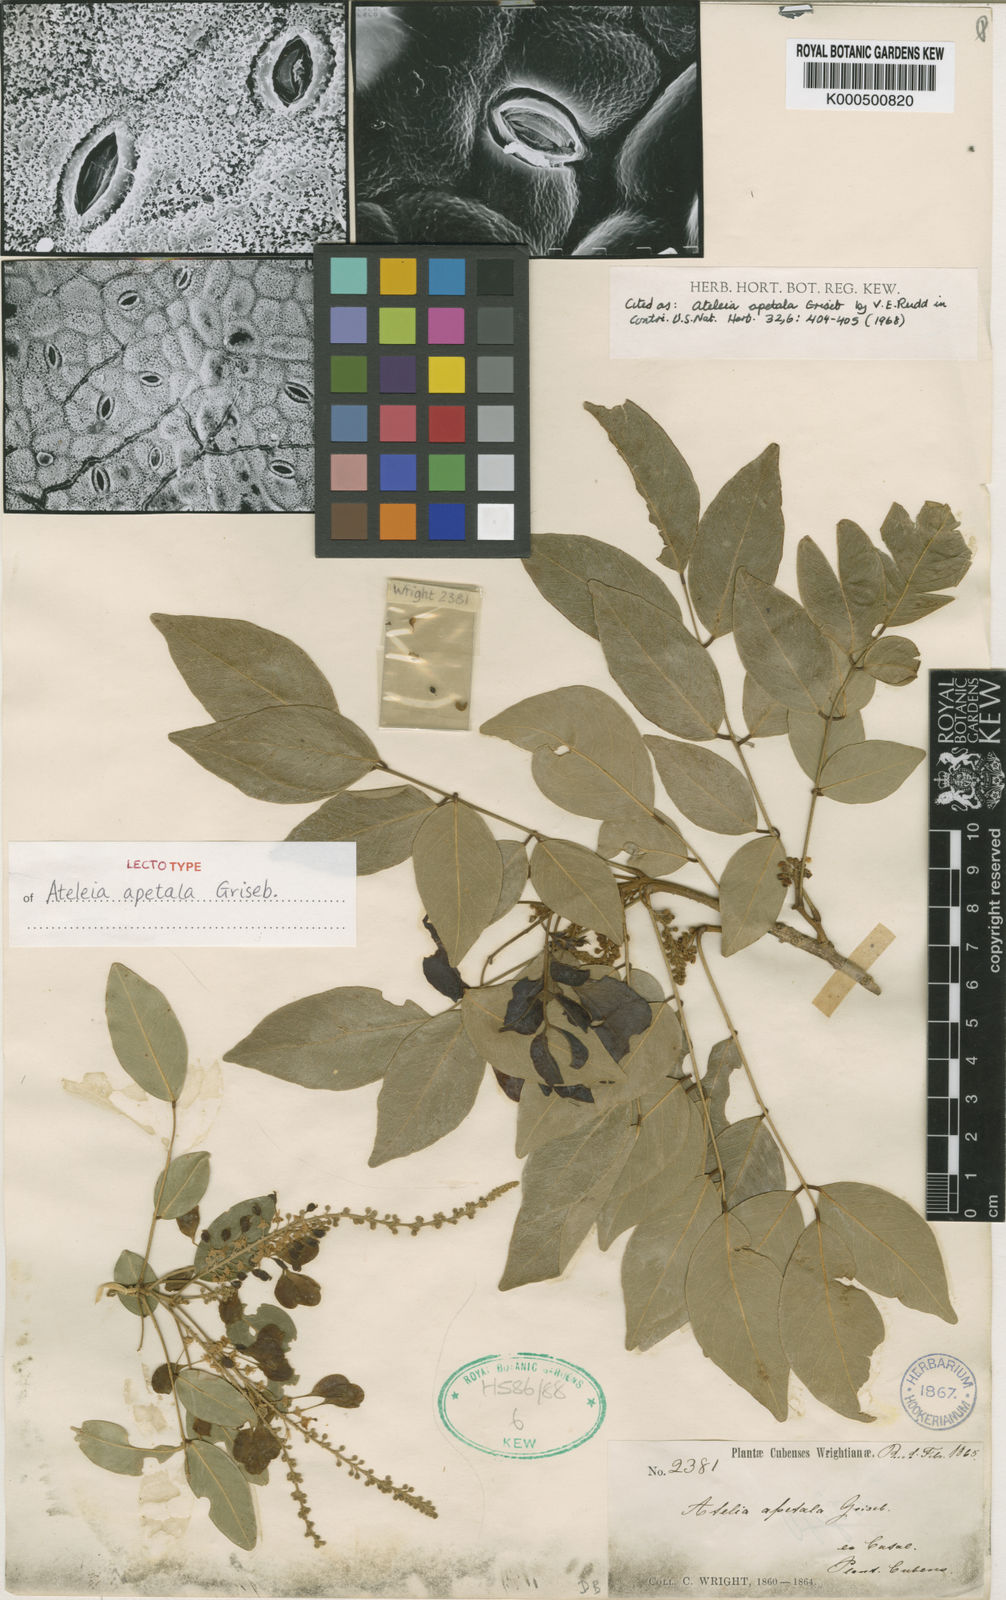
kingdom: Plantae
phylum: Tracheophyta
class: Magnoliopsida
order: Fabales
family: Fabaceae
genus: Ateleia
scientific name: Ateleia apetala
